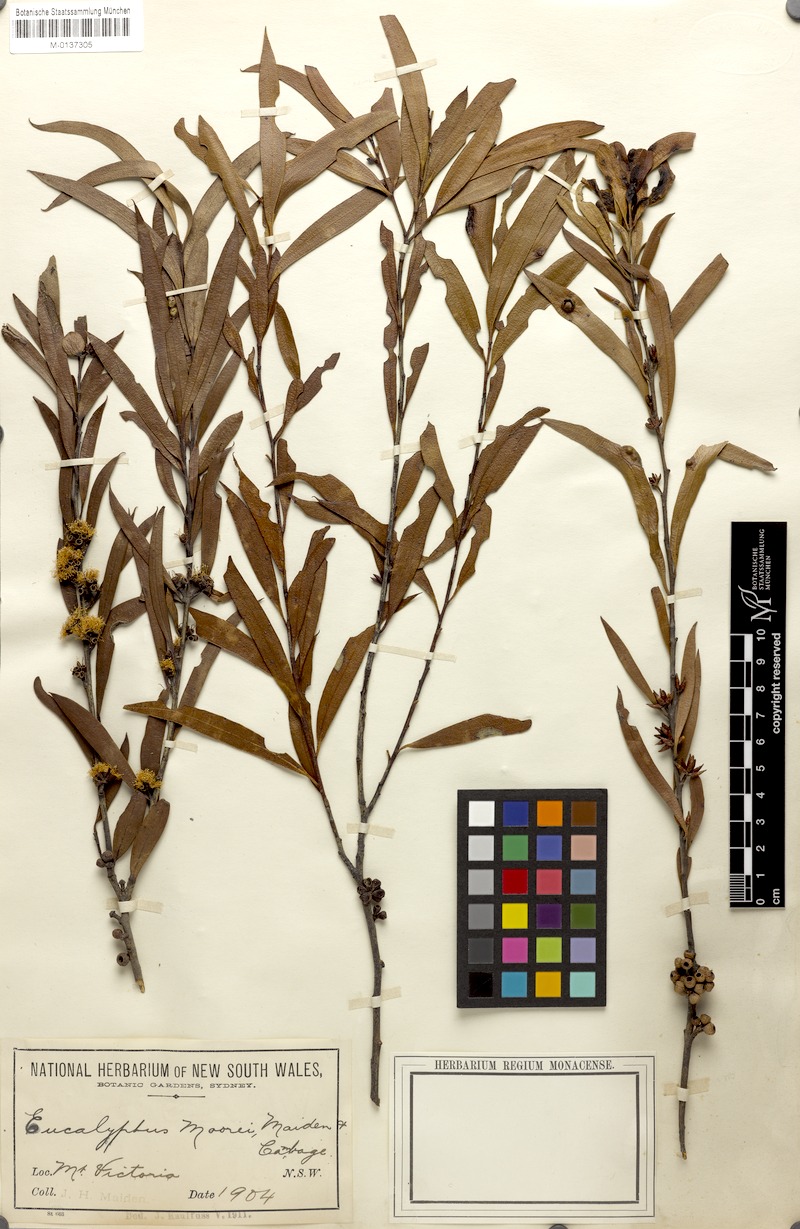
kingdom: Plantae
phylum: Tracheophyta
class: Magnoliopsida
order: Myrtales
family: Myrtaceae
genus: Eucalyptus
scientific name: Eucalyptus moorei
